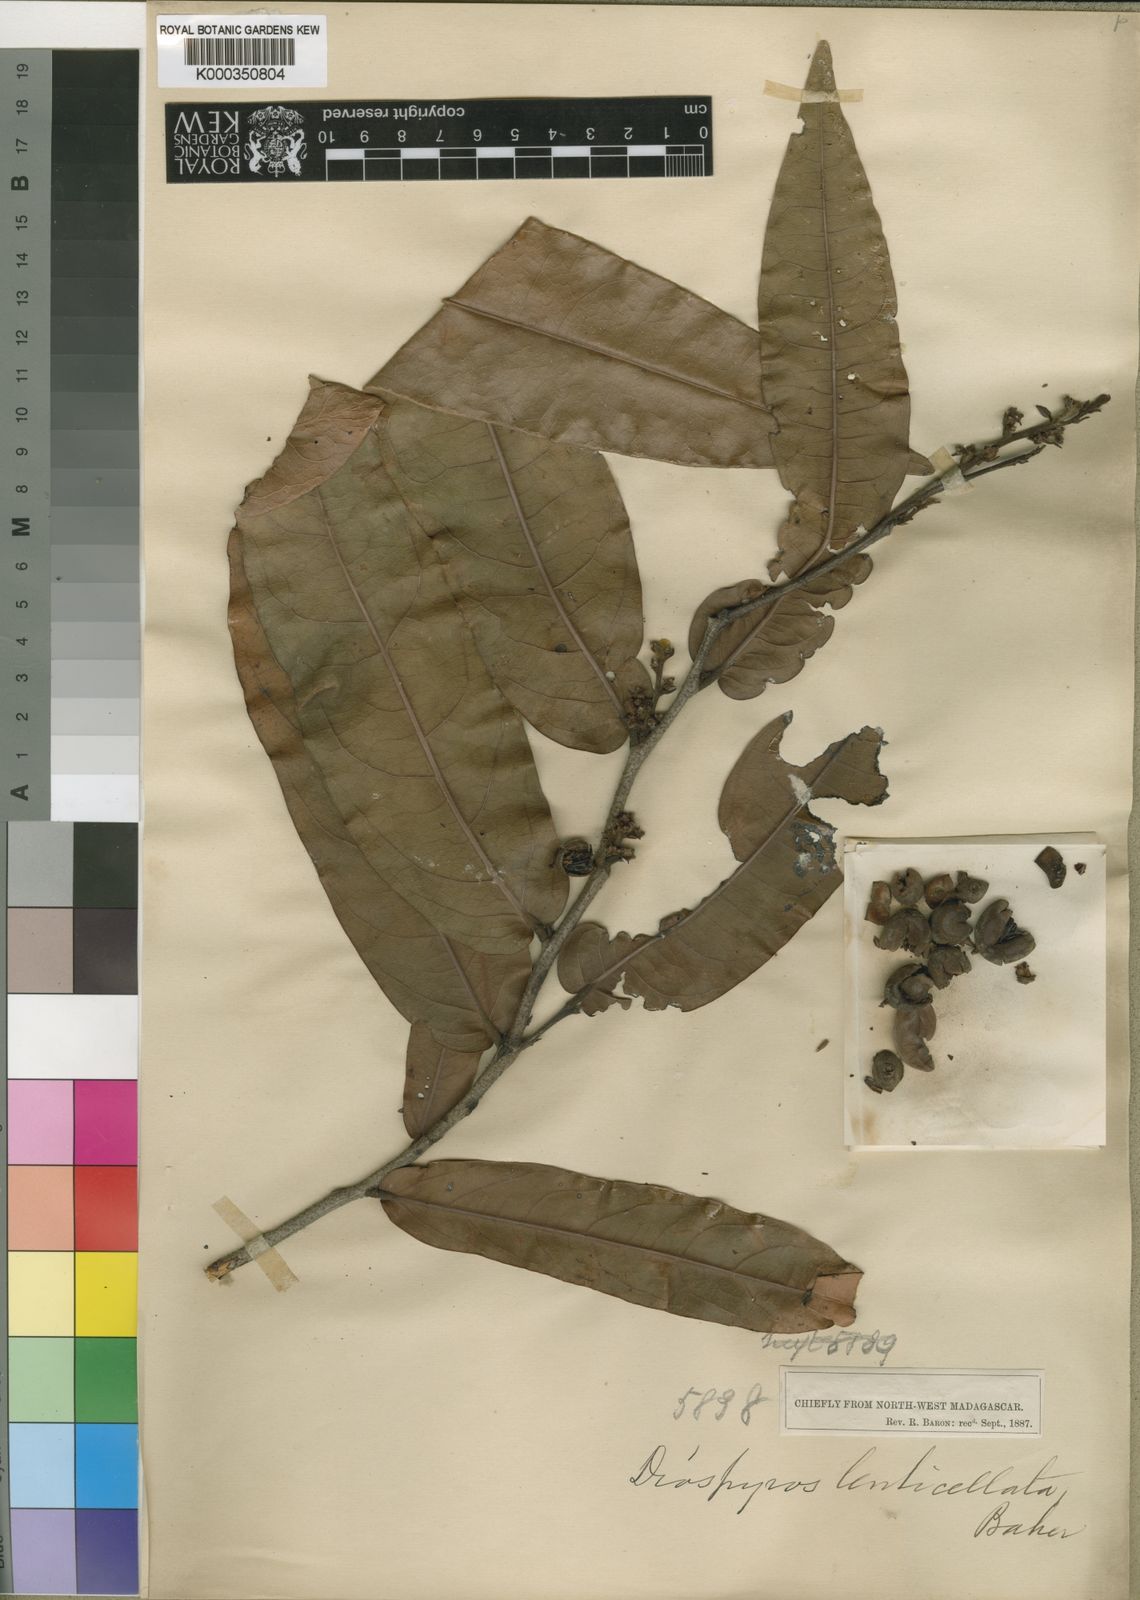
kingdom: Plantae
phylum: Tracheophyta
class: Magnoliopsida
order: Ericales
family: Ebenaceae
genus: Diospyros
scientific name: Diospyros boivinii
